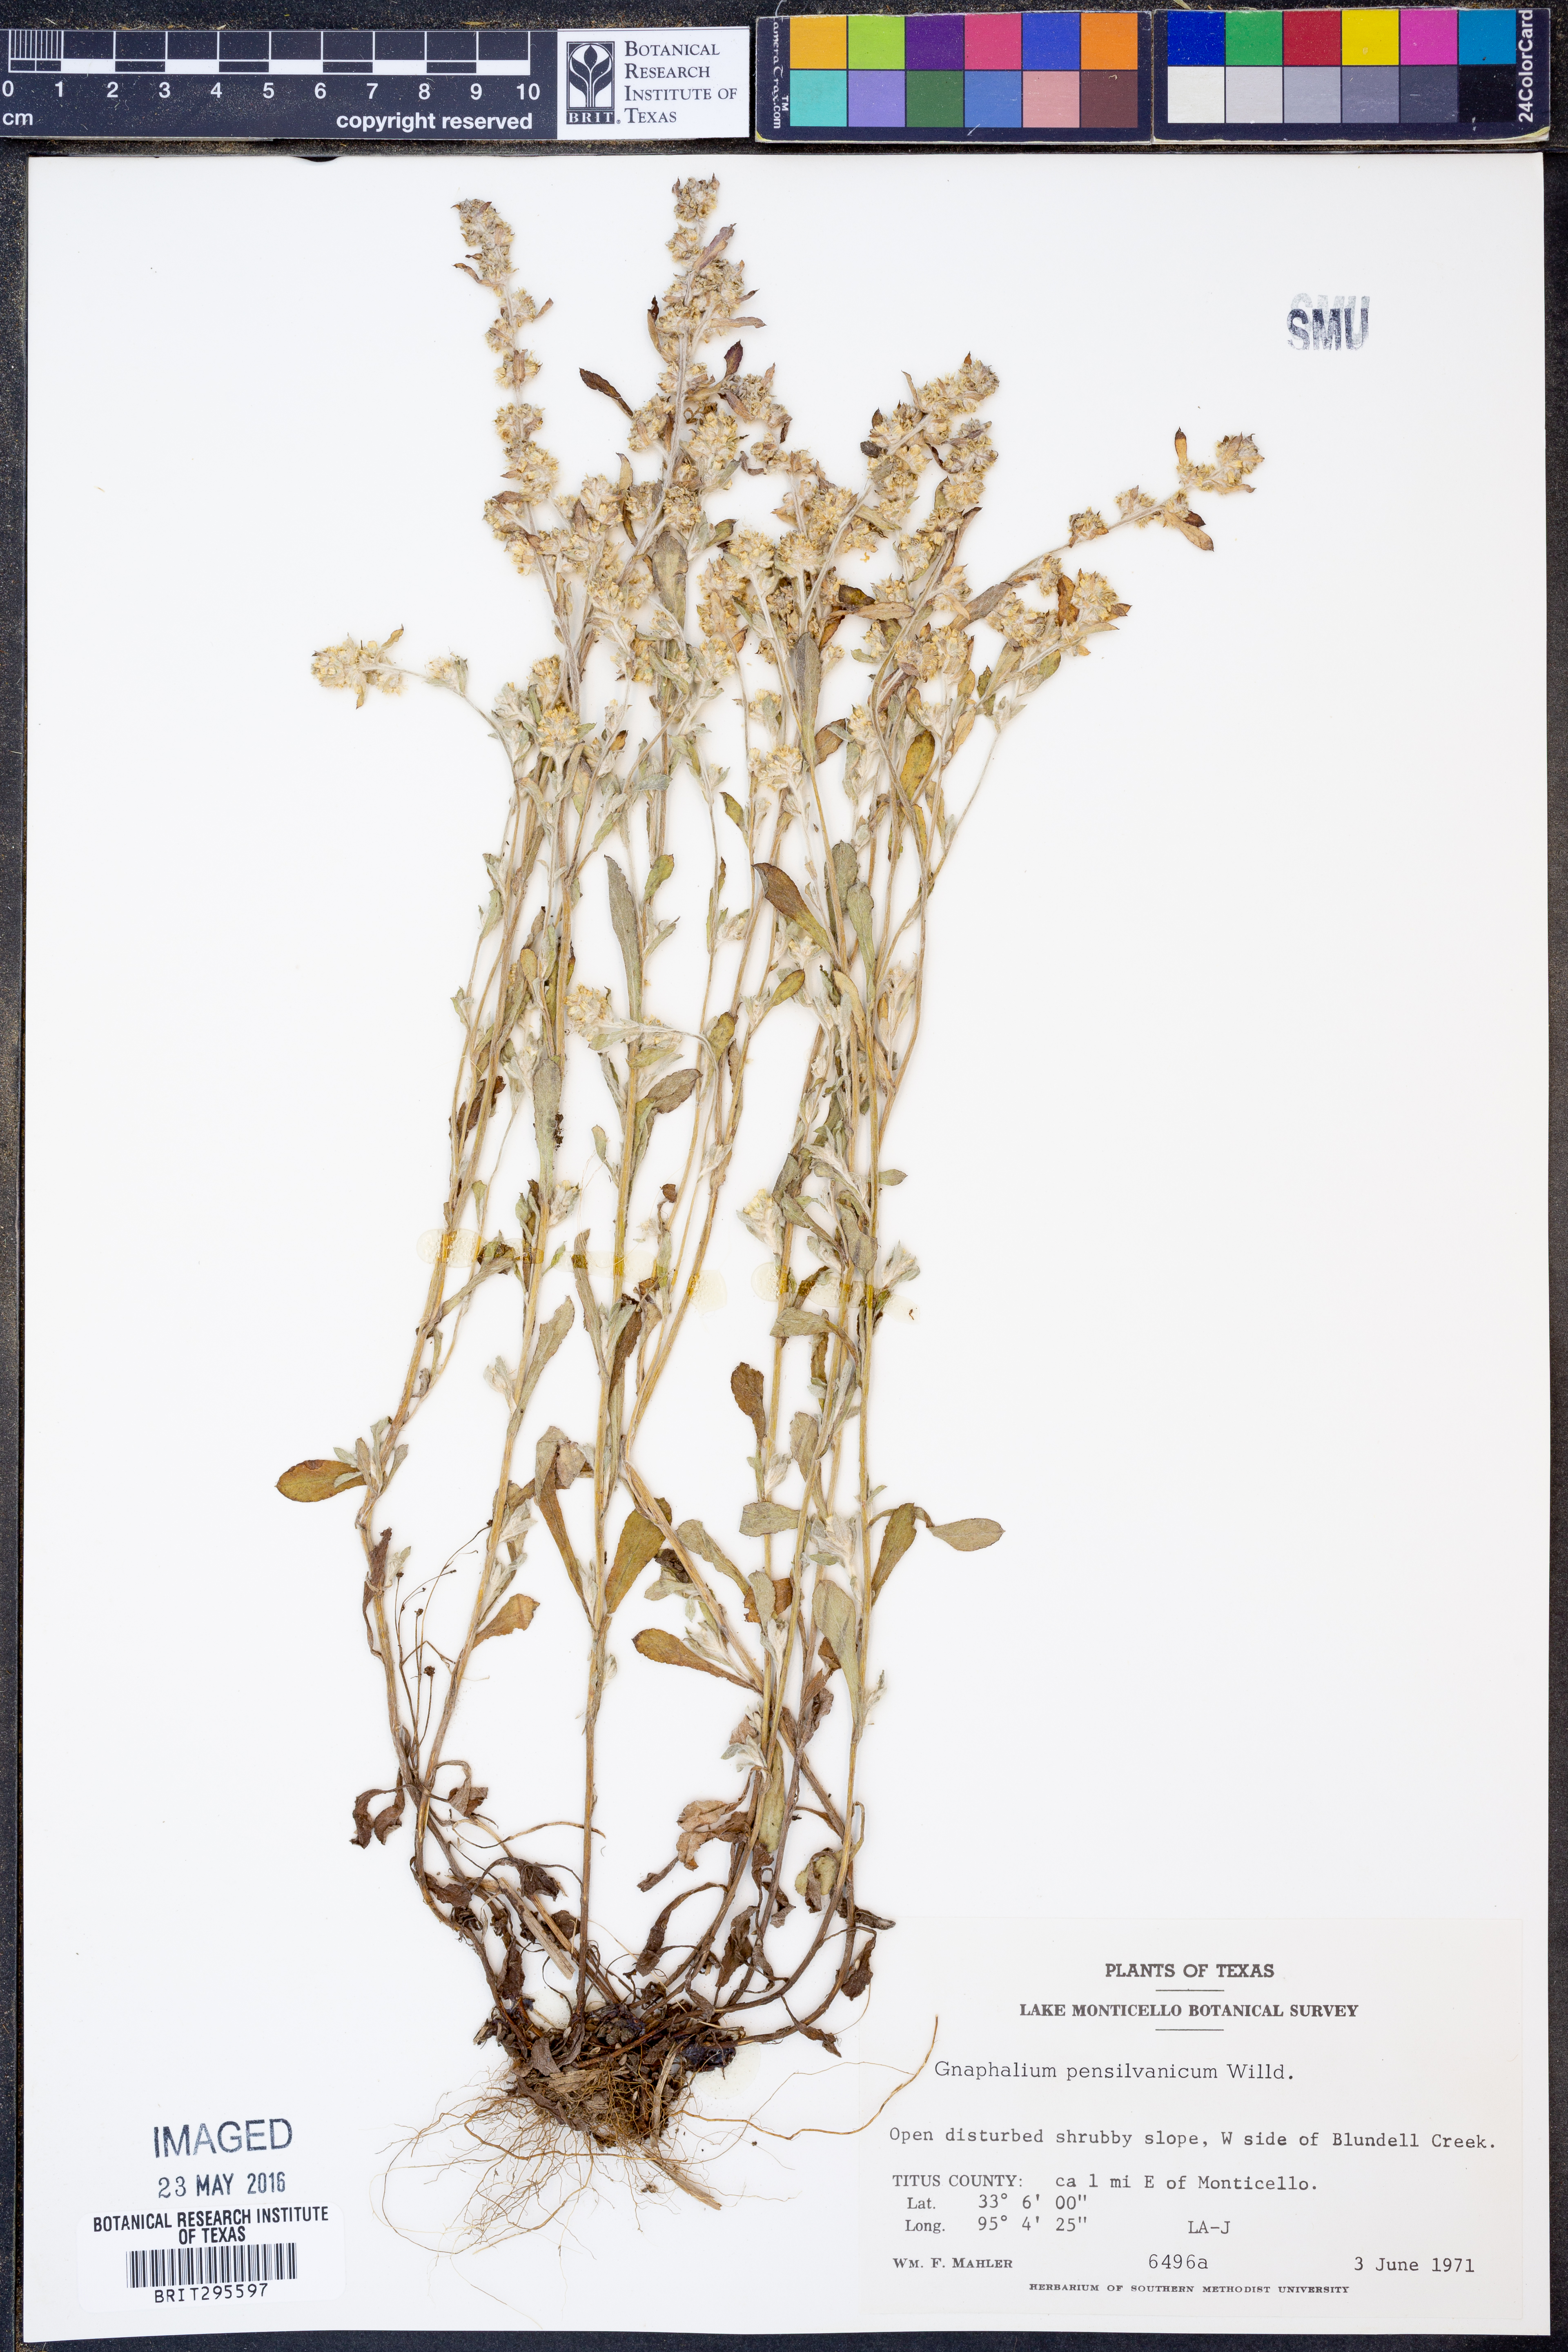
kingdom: Plantae
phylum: Tracheophyta
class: Magnoliopsida
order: Asterales
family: Asteraceae
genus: Gamochaeta
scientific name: Gamochaeta pensylvanica
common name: Pennsylvania everlasting
